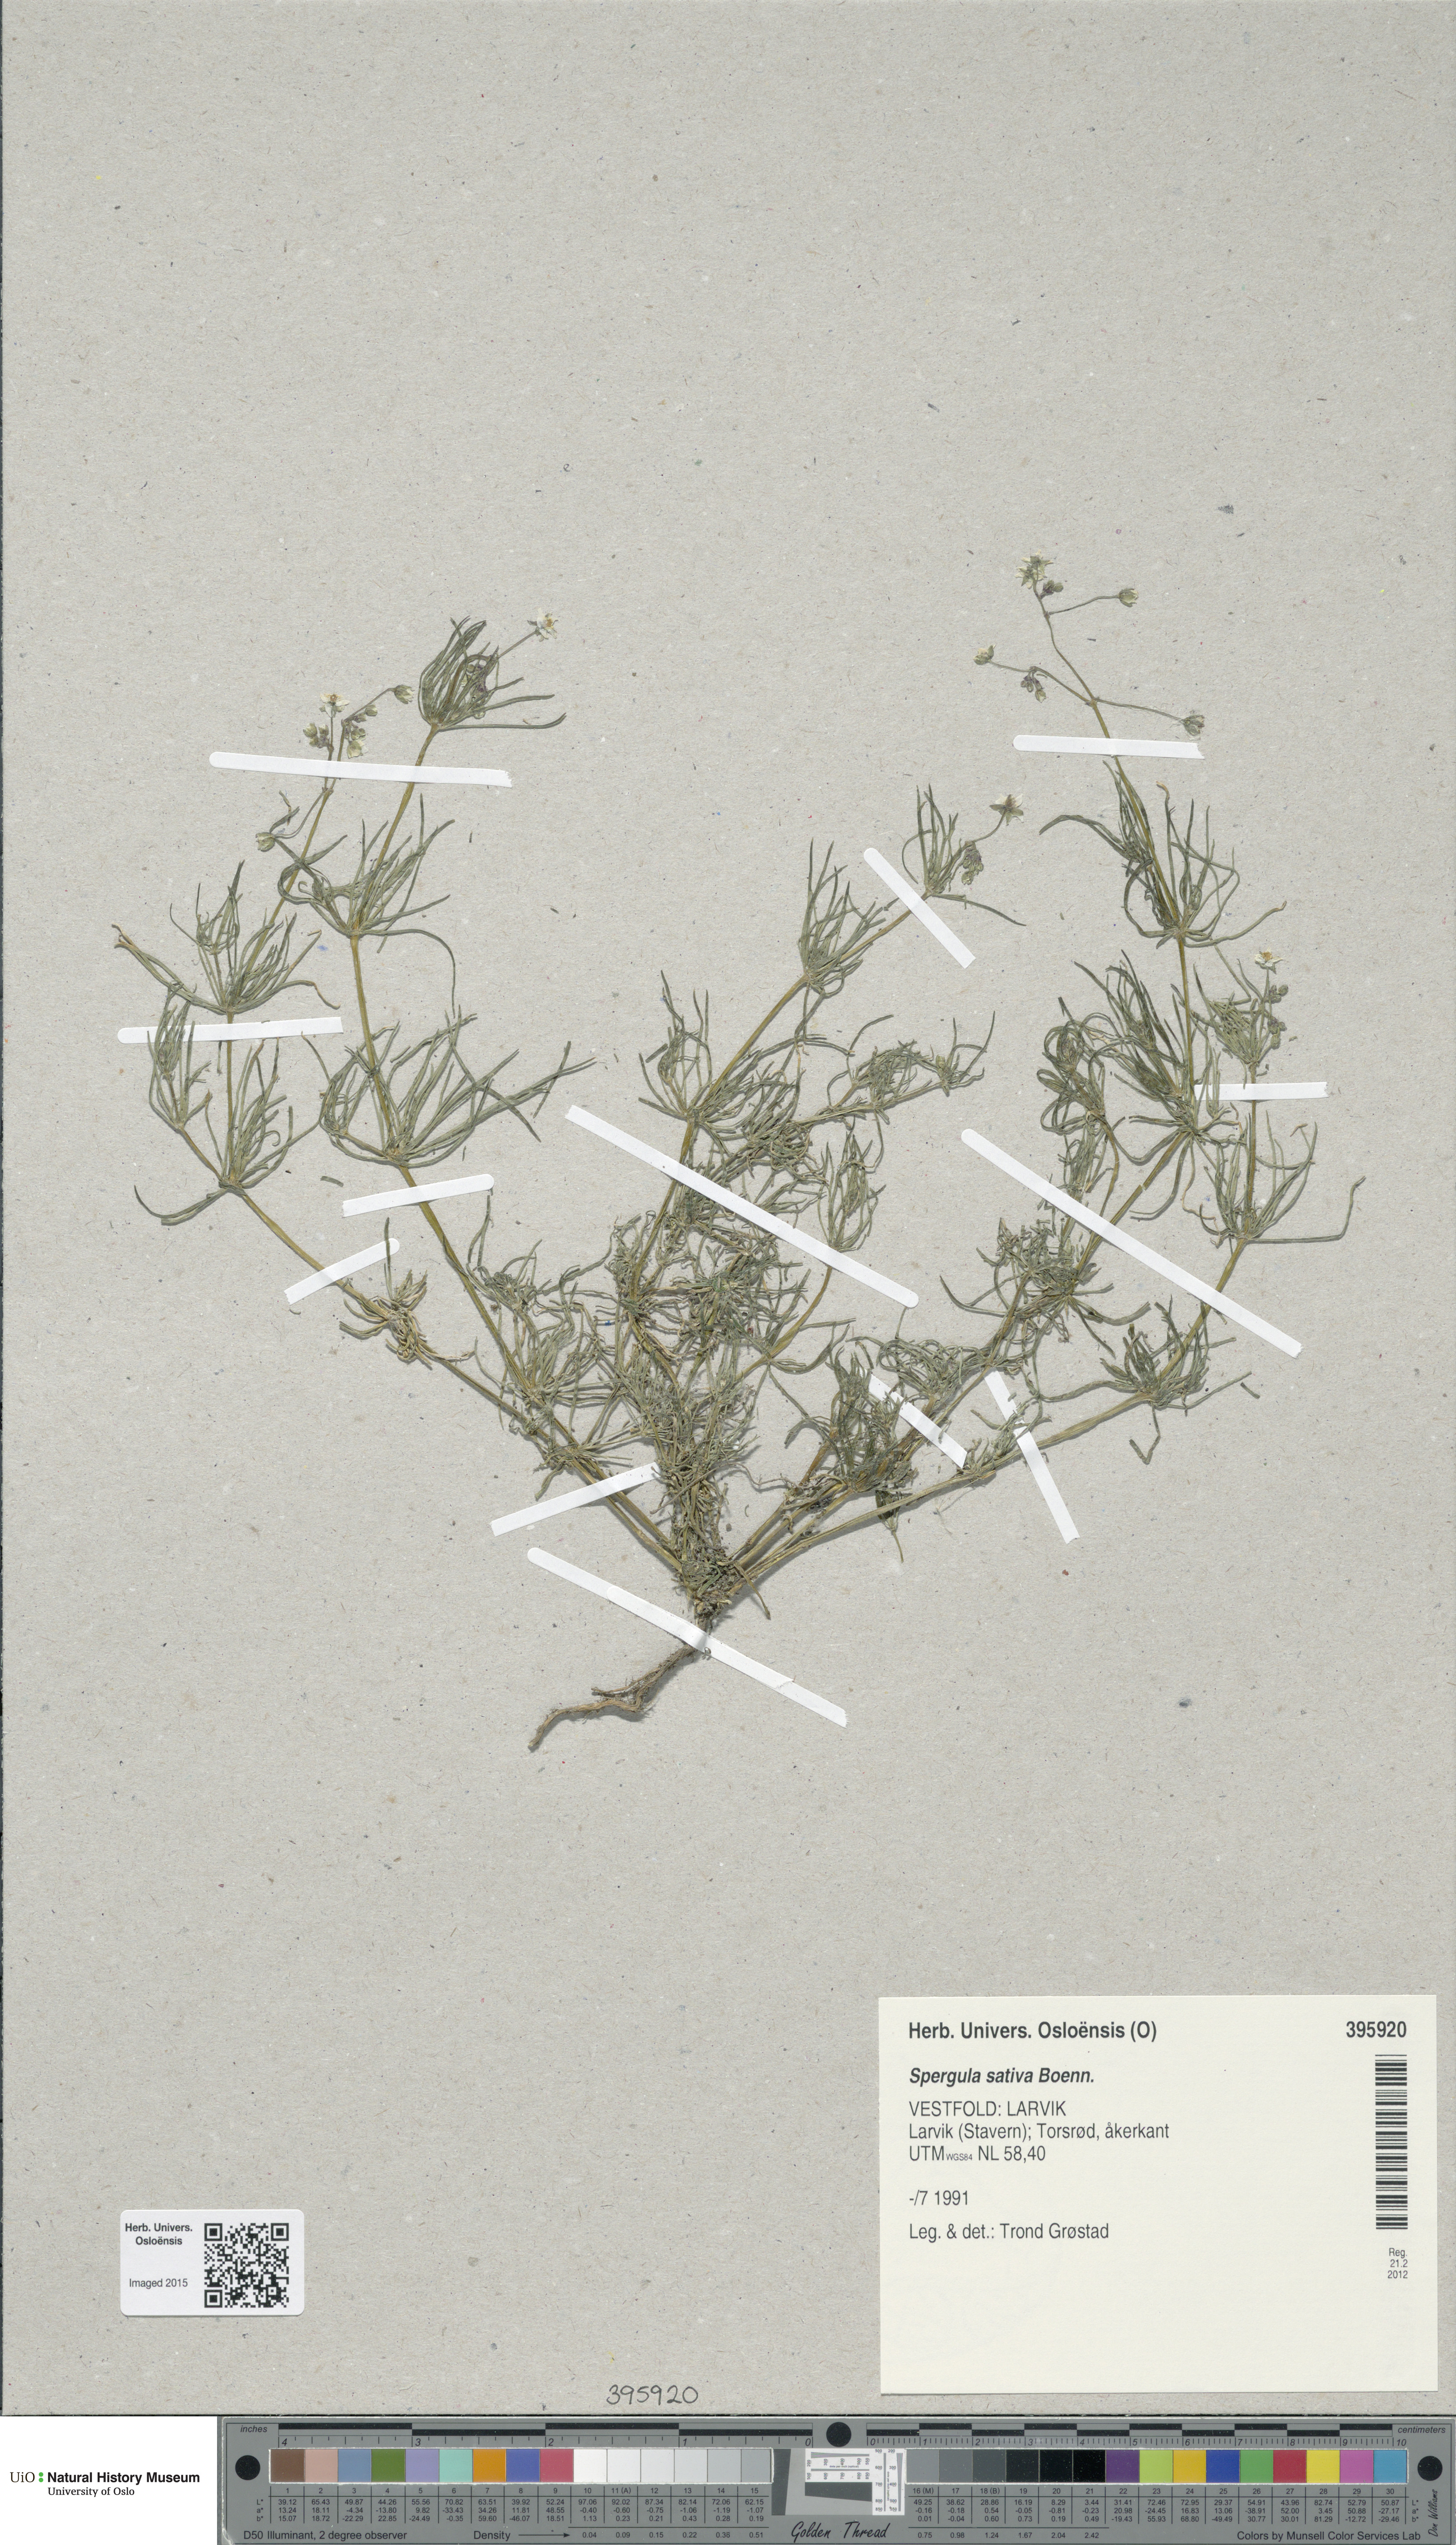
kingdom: Plantae
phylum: Tracheophyta
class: Magnoliopsida
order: Caryophyllales
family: Caryophyllaceae
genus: Spergula
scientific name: Spergula arvensis
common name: Corn spurrey
